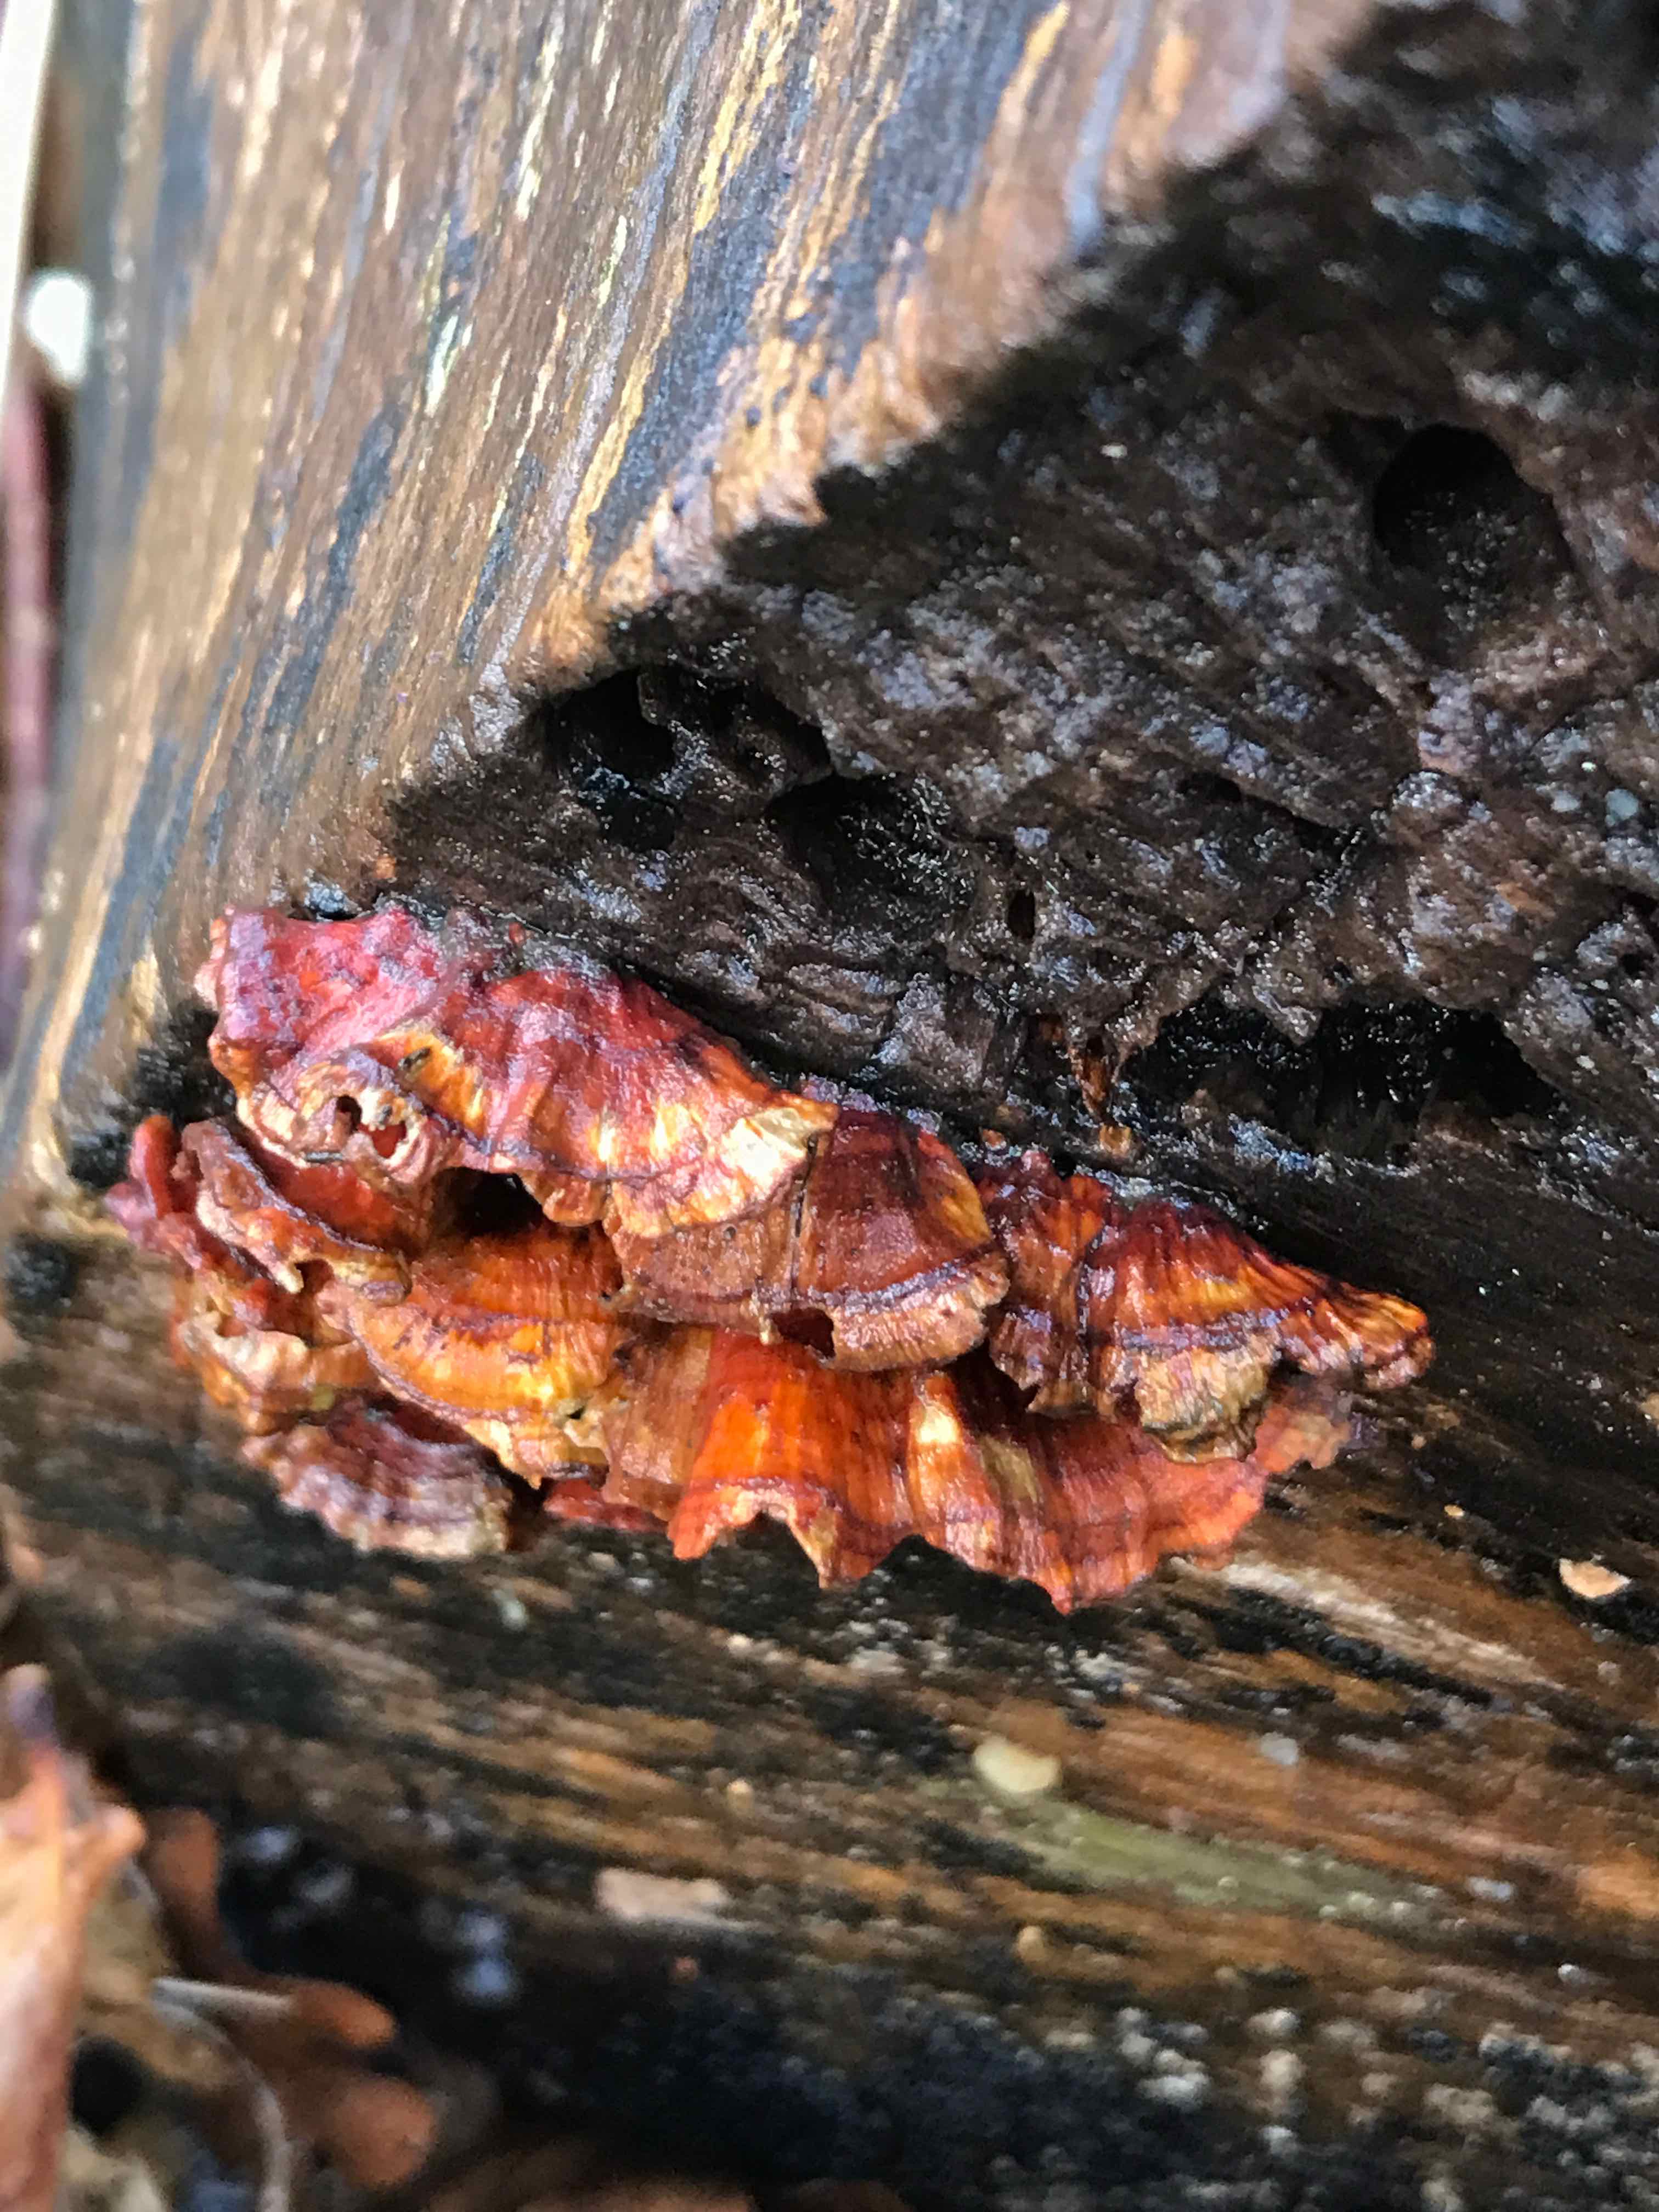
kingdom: Fungi
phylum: Basidiomycota
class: Agaricomycetes
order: Russulales
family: Stereaceae
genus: Stereum
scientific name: Stereum subtomentosum
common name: smuk lædersvamp
